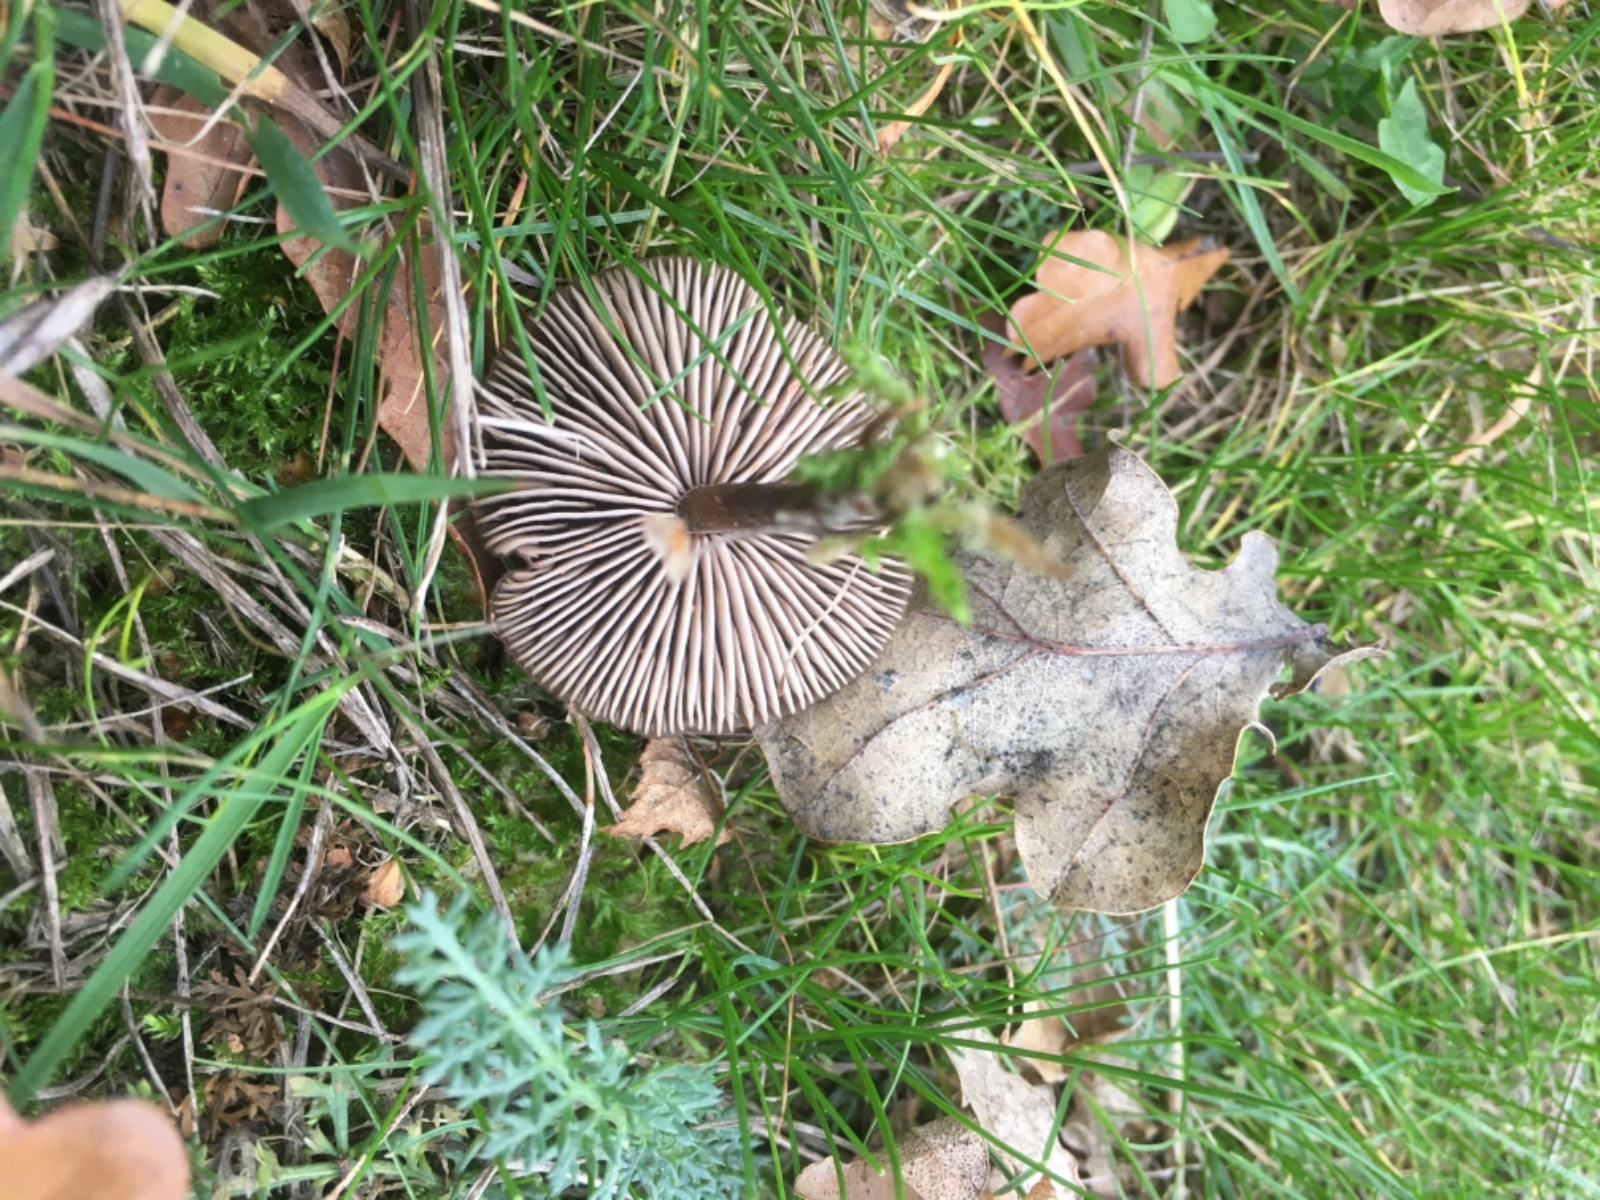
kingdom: Fungi
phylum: Basidiomycota
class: Agaricomycetes
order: Agaricales
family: Entolomataceae
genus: Entoloma
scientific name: Entoloma sericeum
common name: silkeglinsende rødblad
